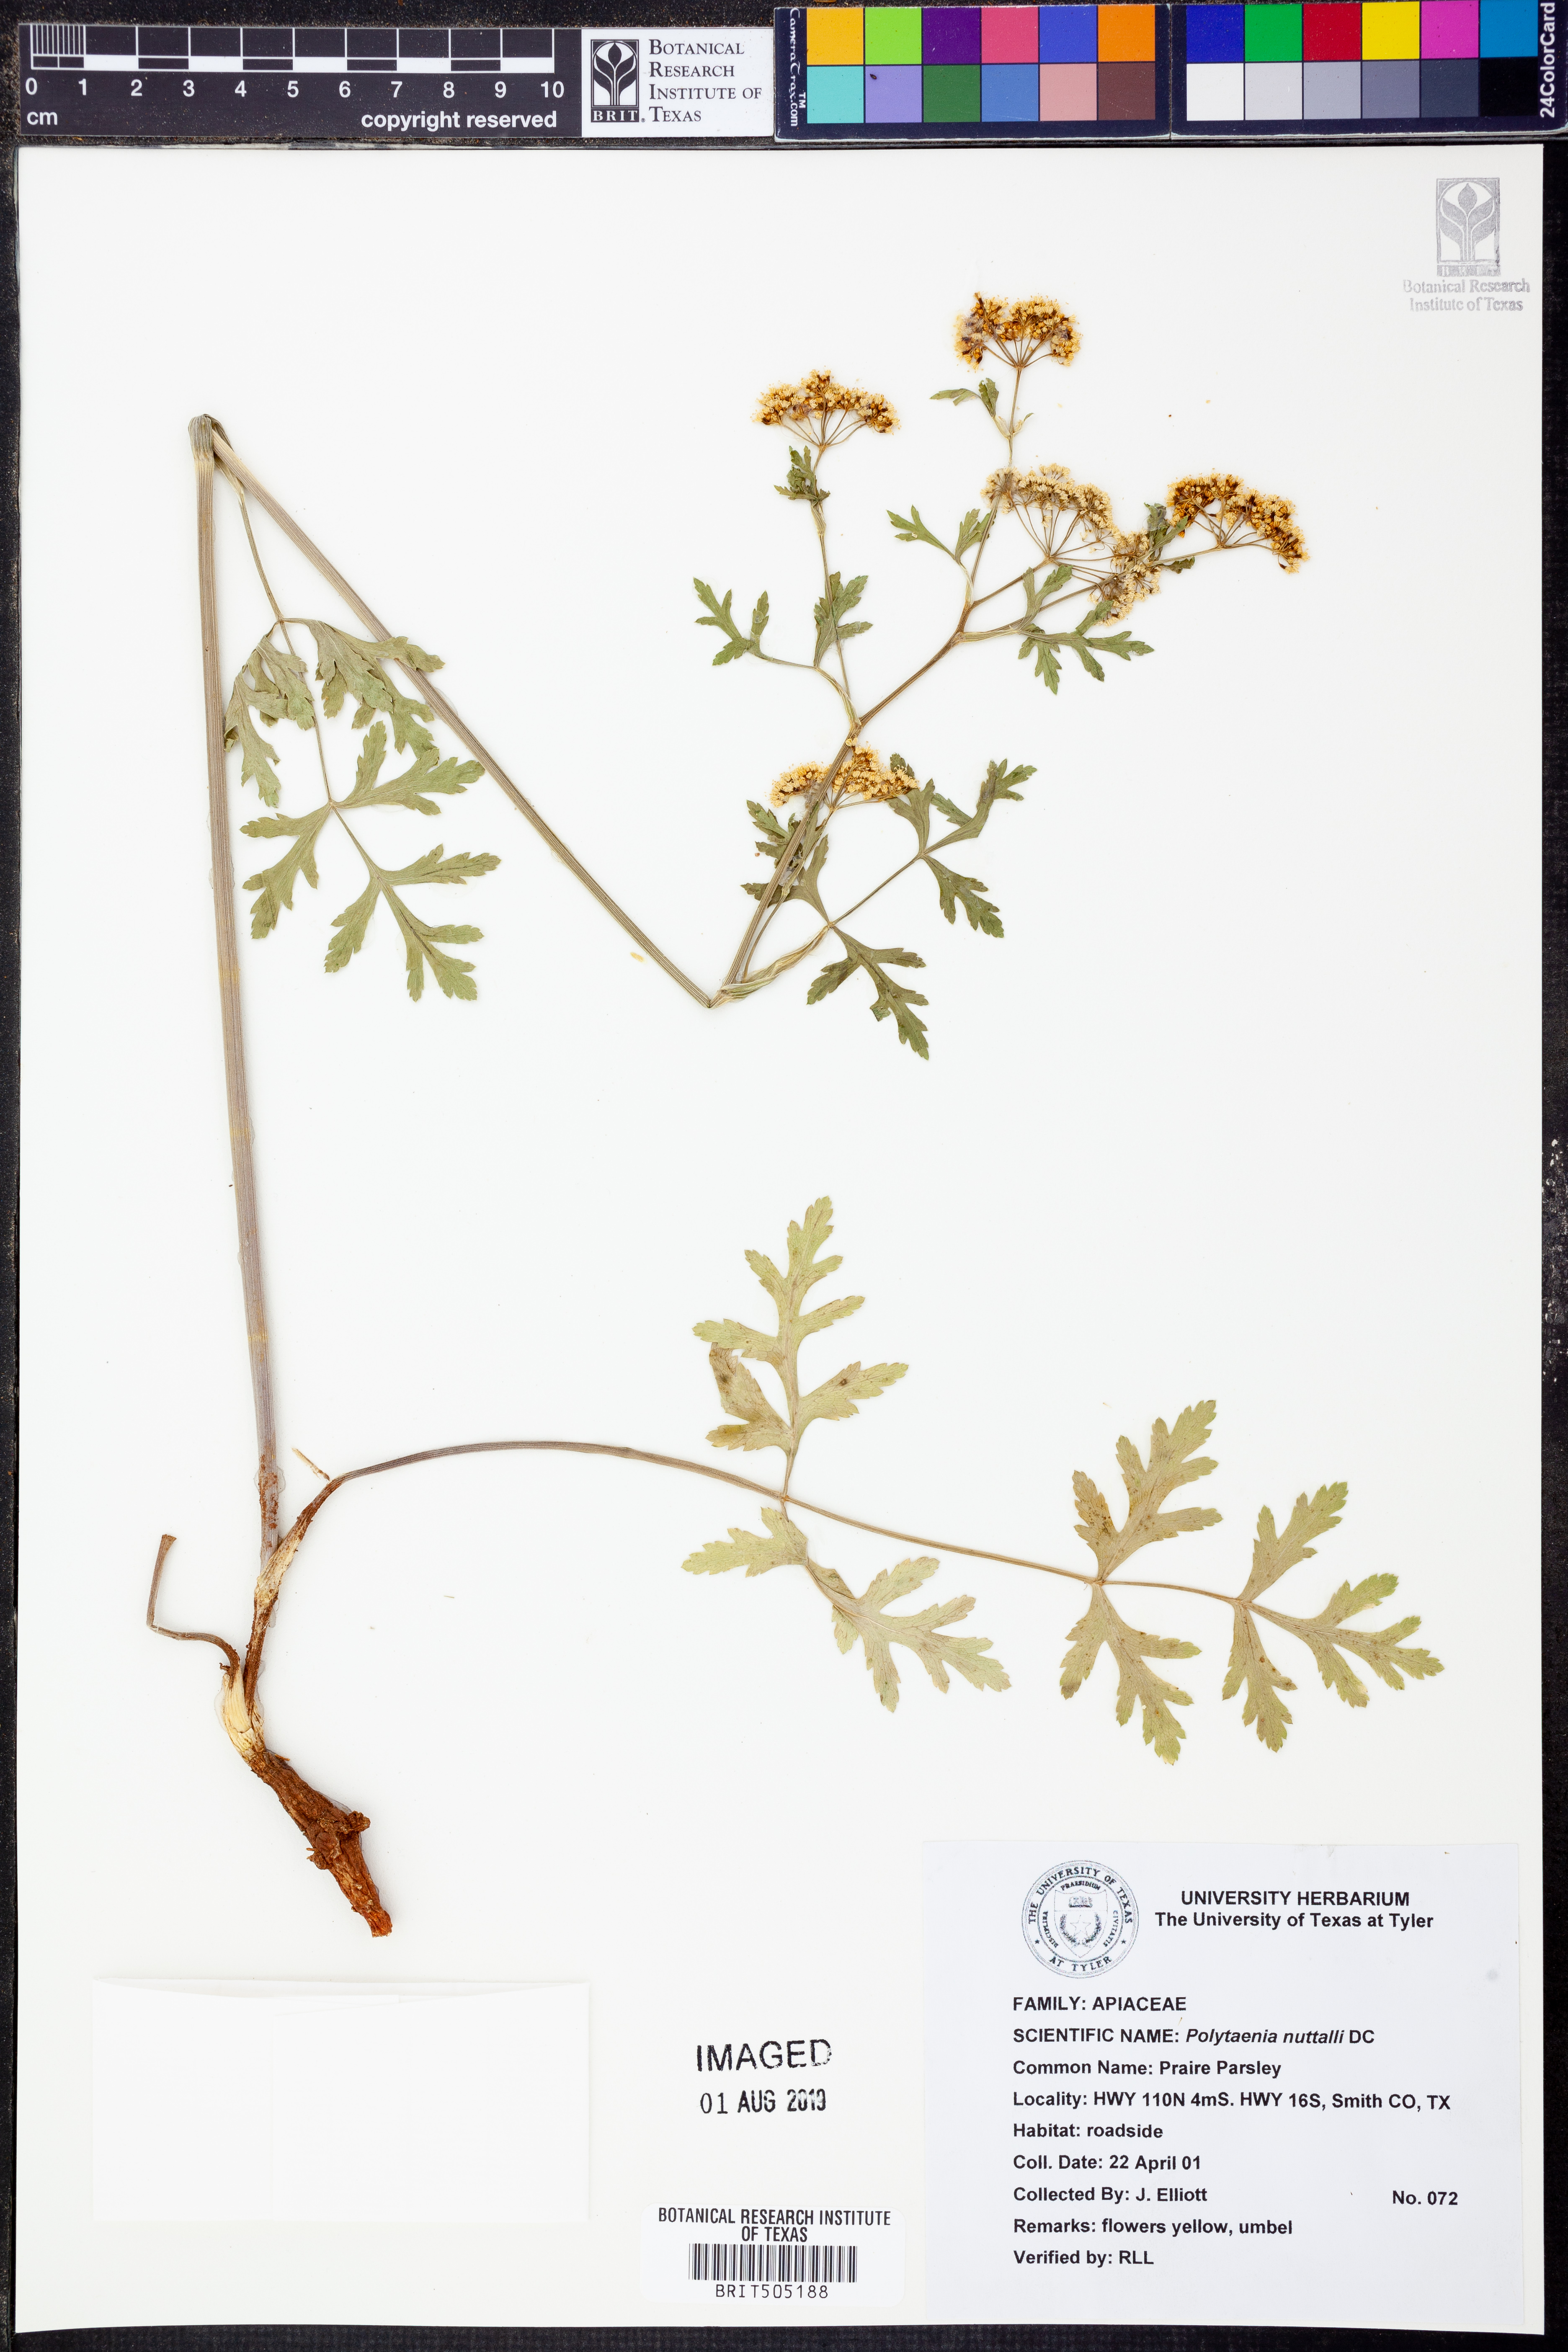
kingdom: Plantae
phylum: Tracheophyta
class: Magnoliopsida
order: Apiales
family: Apiaceae
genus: Polytaenia
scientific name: Polytaenia nuttallii
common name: Prairie-parsley
